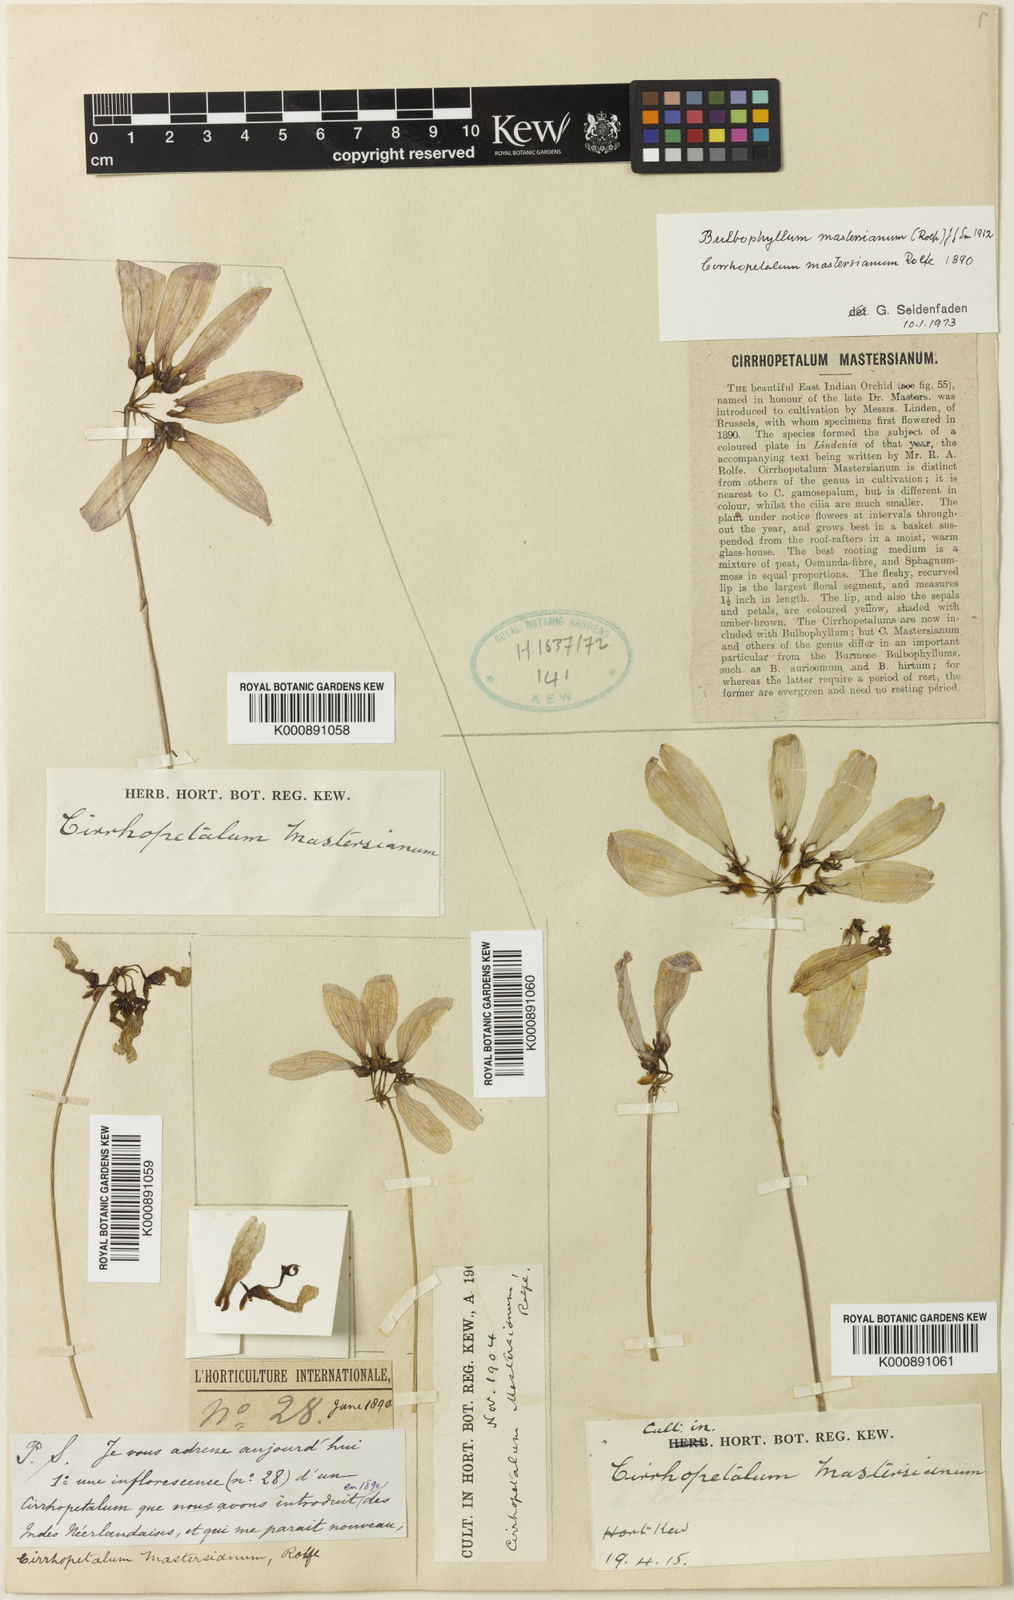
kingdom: Plantae
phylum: Tracheophyta
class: Liliopsida
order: Asparagales
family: Orchidaceae
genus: Bulbophyllum
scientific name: Bulbophyllum mastersianum
